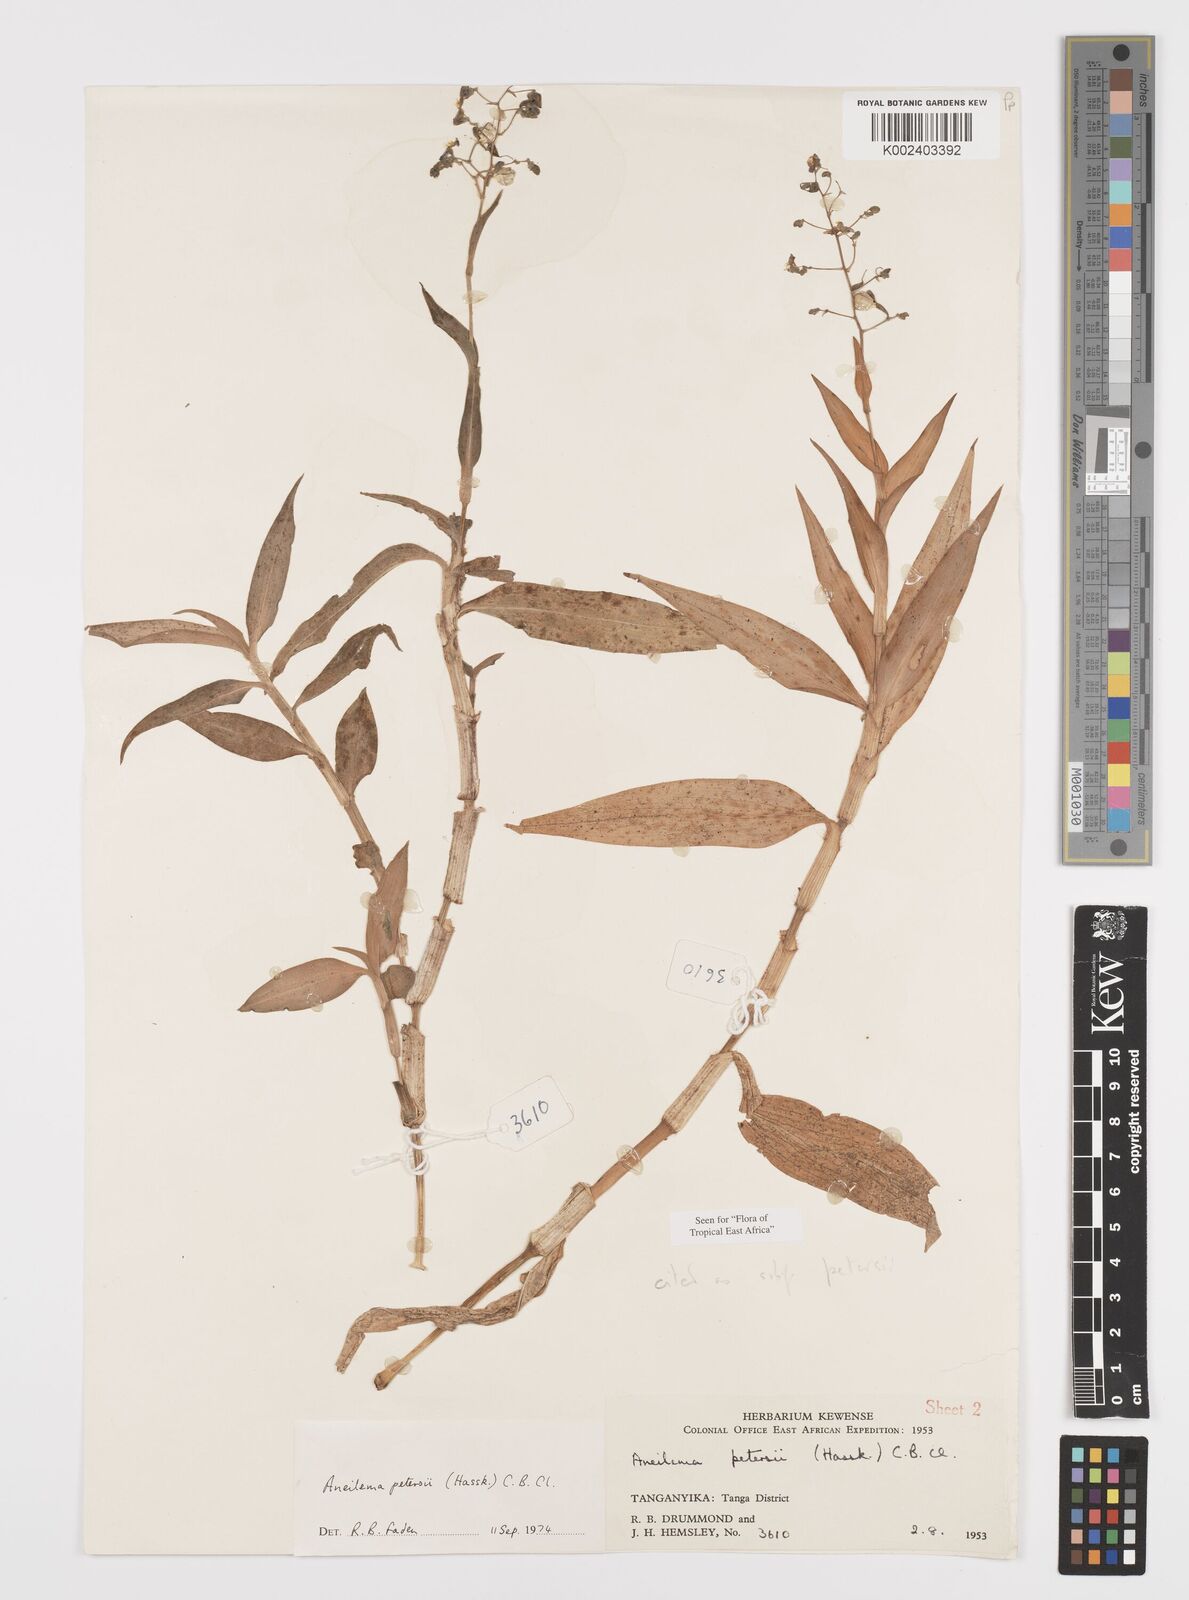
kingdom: Plantae
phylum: Tracheophyta
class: Liliopsida
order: Commelinales
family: Commelinaceae
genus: Aneilema
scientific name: Aneilema petersii
